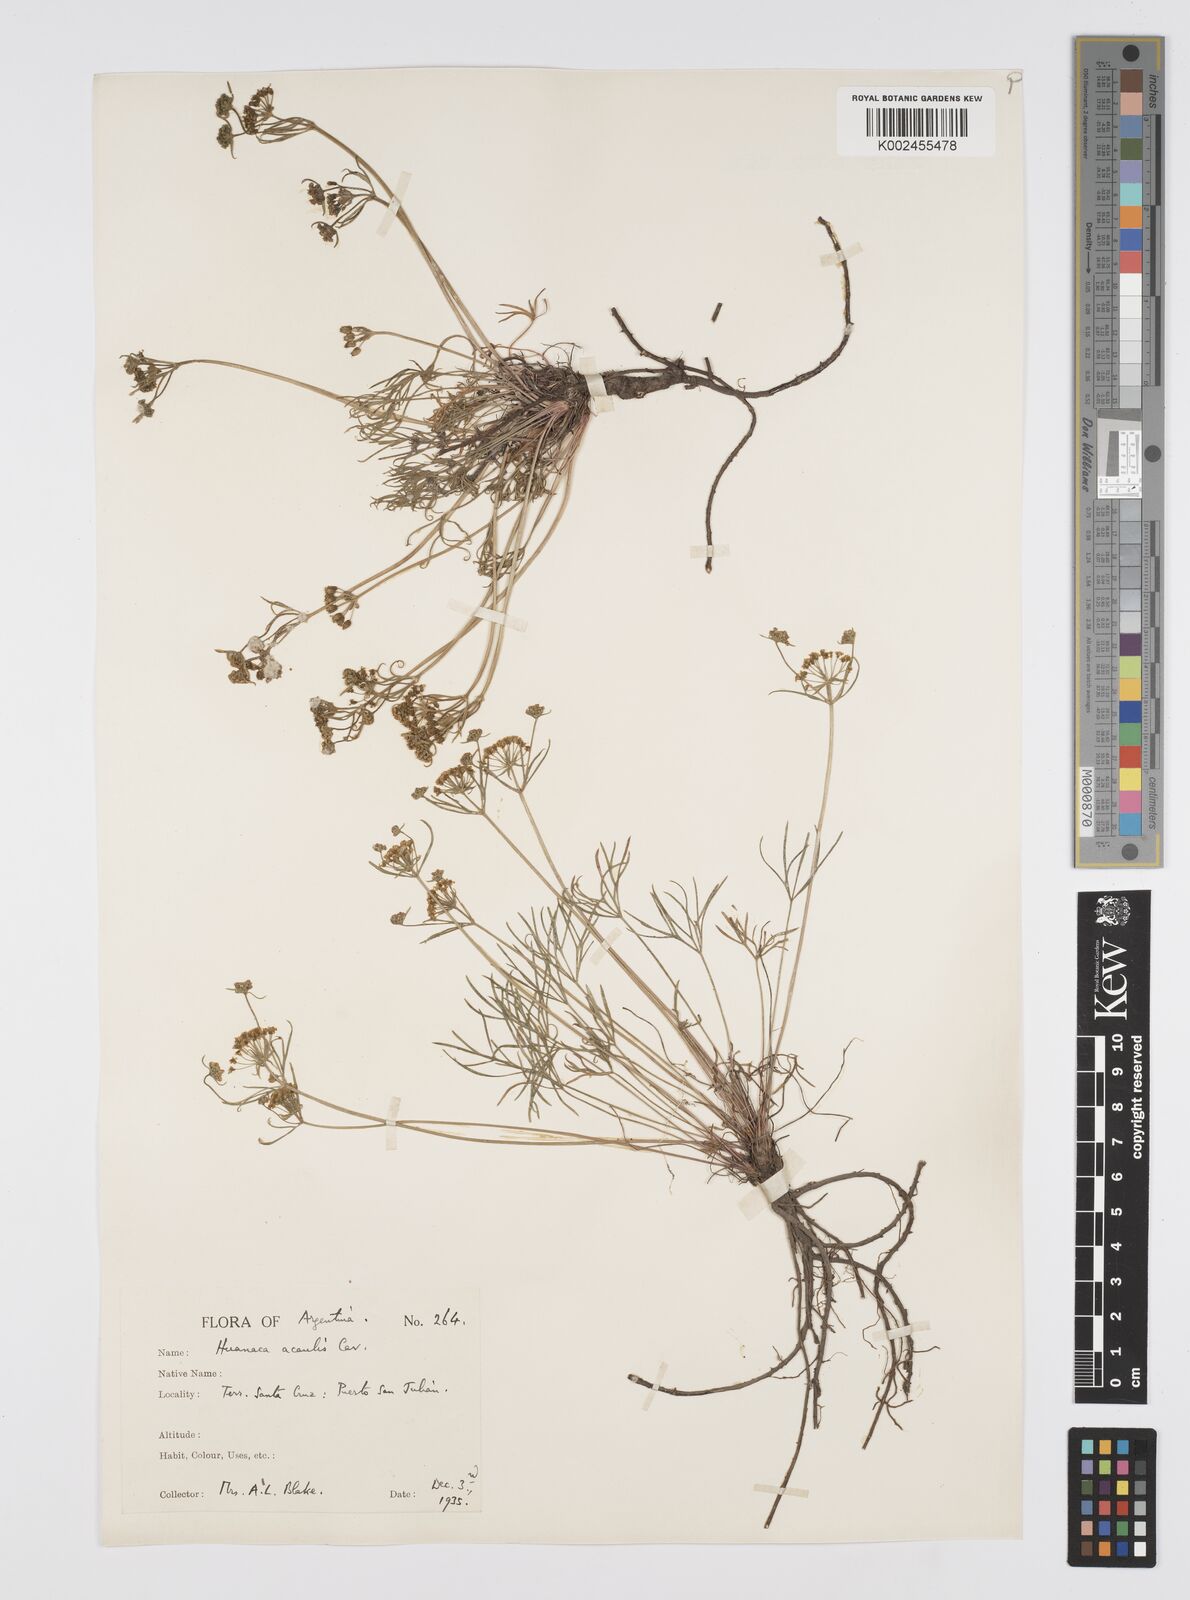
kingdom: Plantae
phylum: Tracheophyta
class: Magnoliopsida
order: Apiales
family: Apiaceae
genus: Azorella
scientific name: Azorella acaulis
